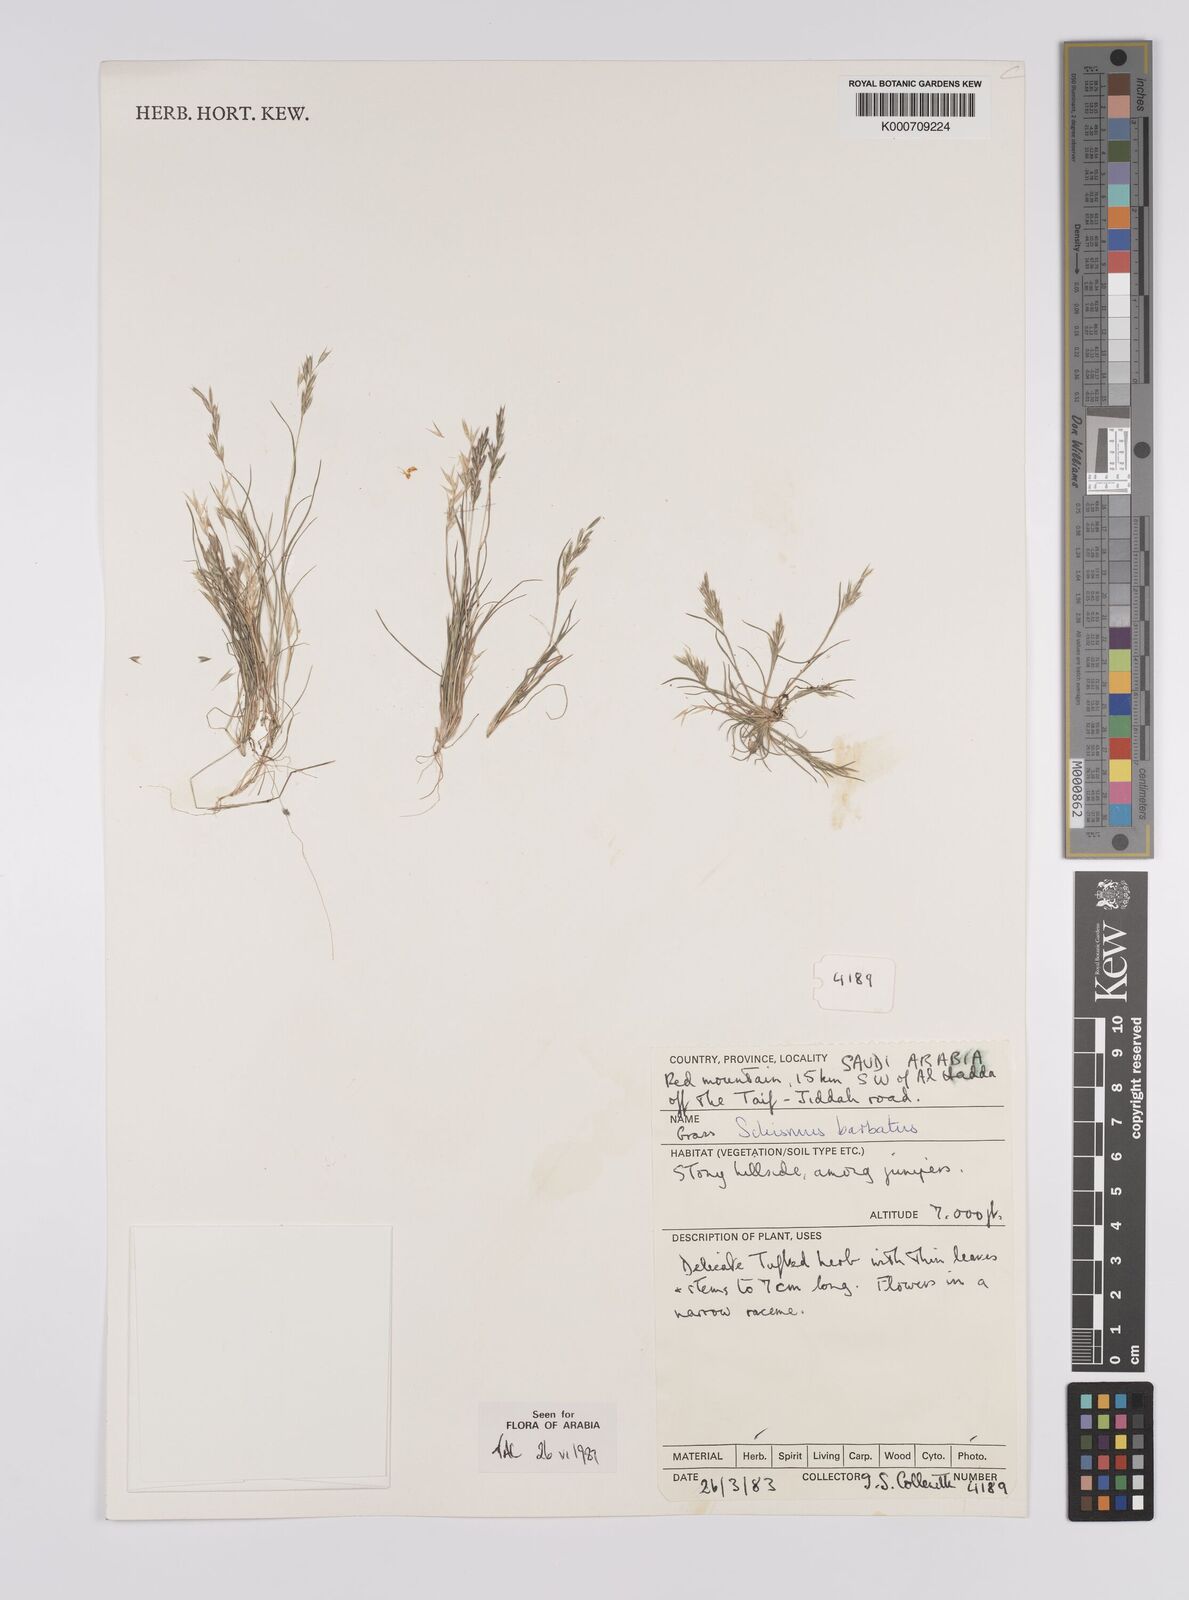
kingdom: Plantae
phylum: Tracheophyta
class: Liliopsida
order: Poales
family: Poaceae
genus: Schismus
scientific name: Schismus barbatus
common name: Kelch-grass
